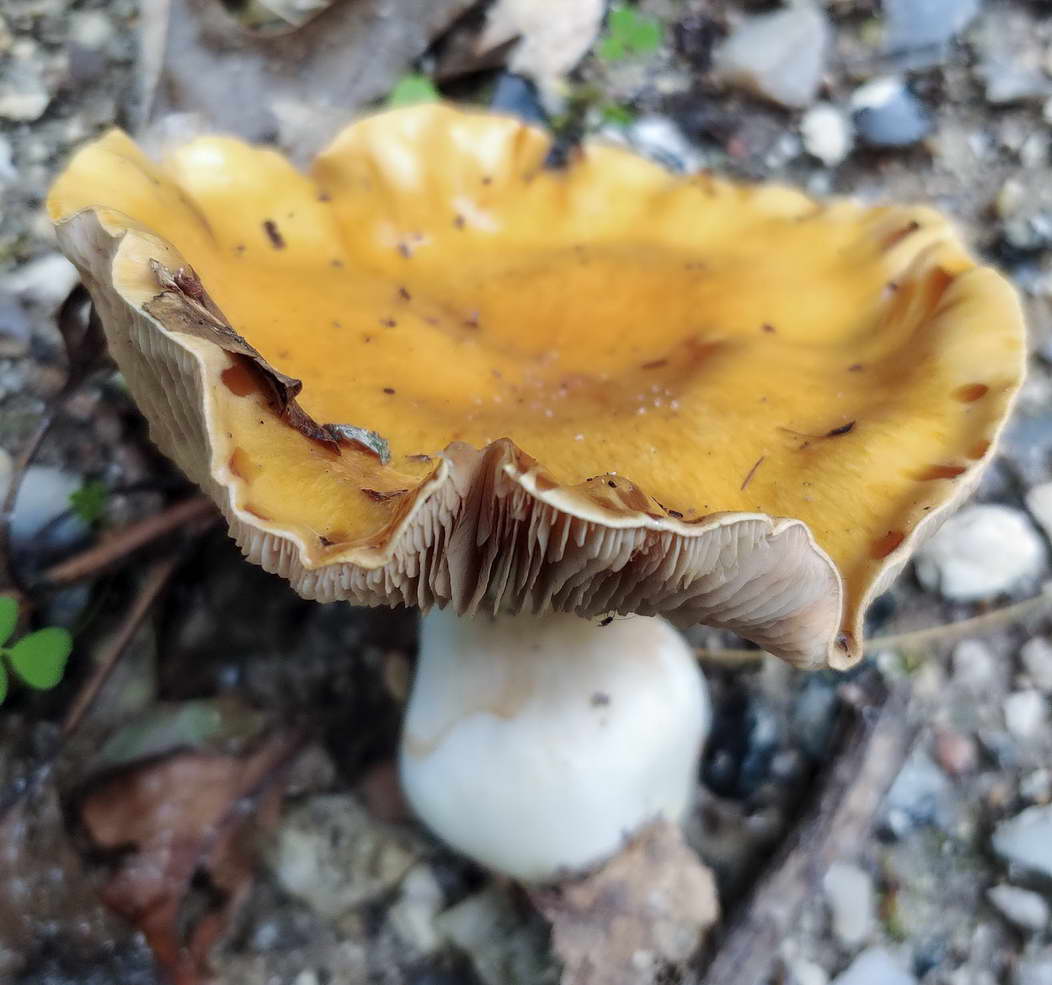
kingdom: Fungi
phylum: Basidiomycota
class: Agaricomycetes
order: Agaricales
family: Cortinariaceae
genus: Thaxterogaster
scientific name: Thaxterogaster emollitus
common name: besk slørhat
